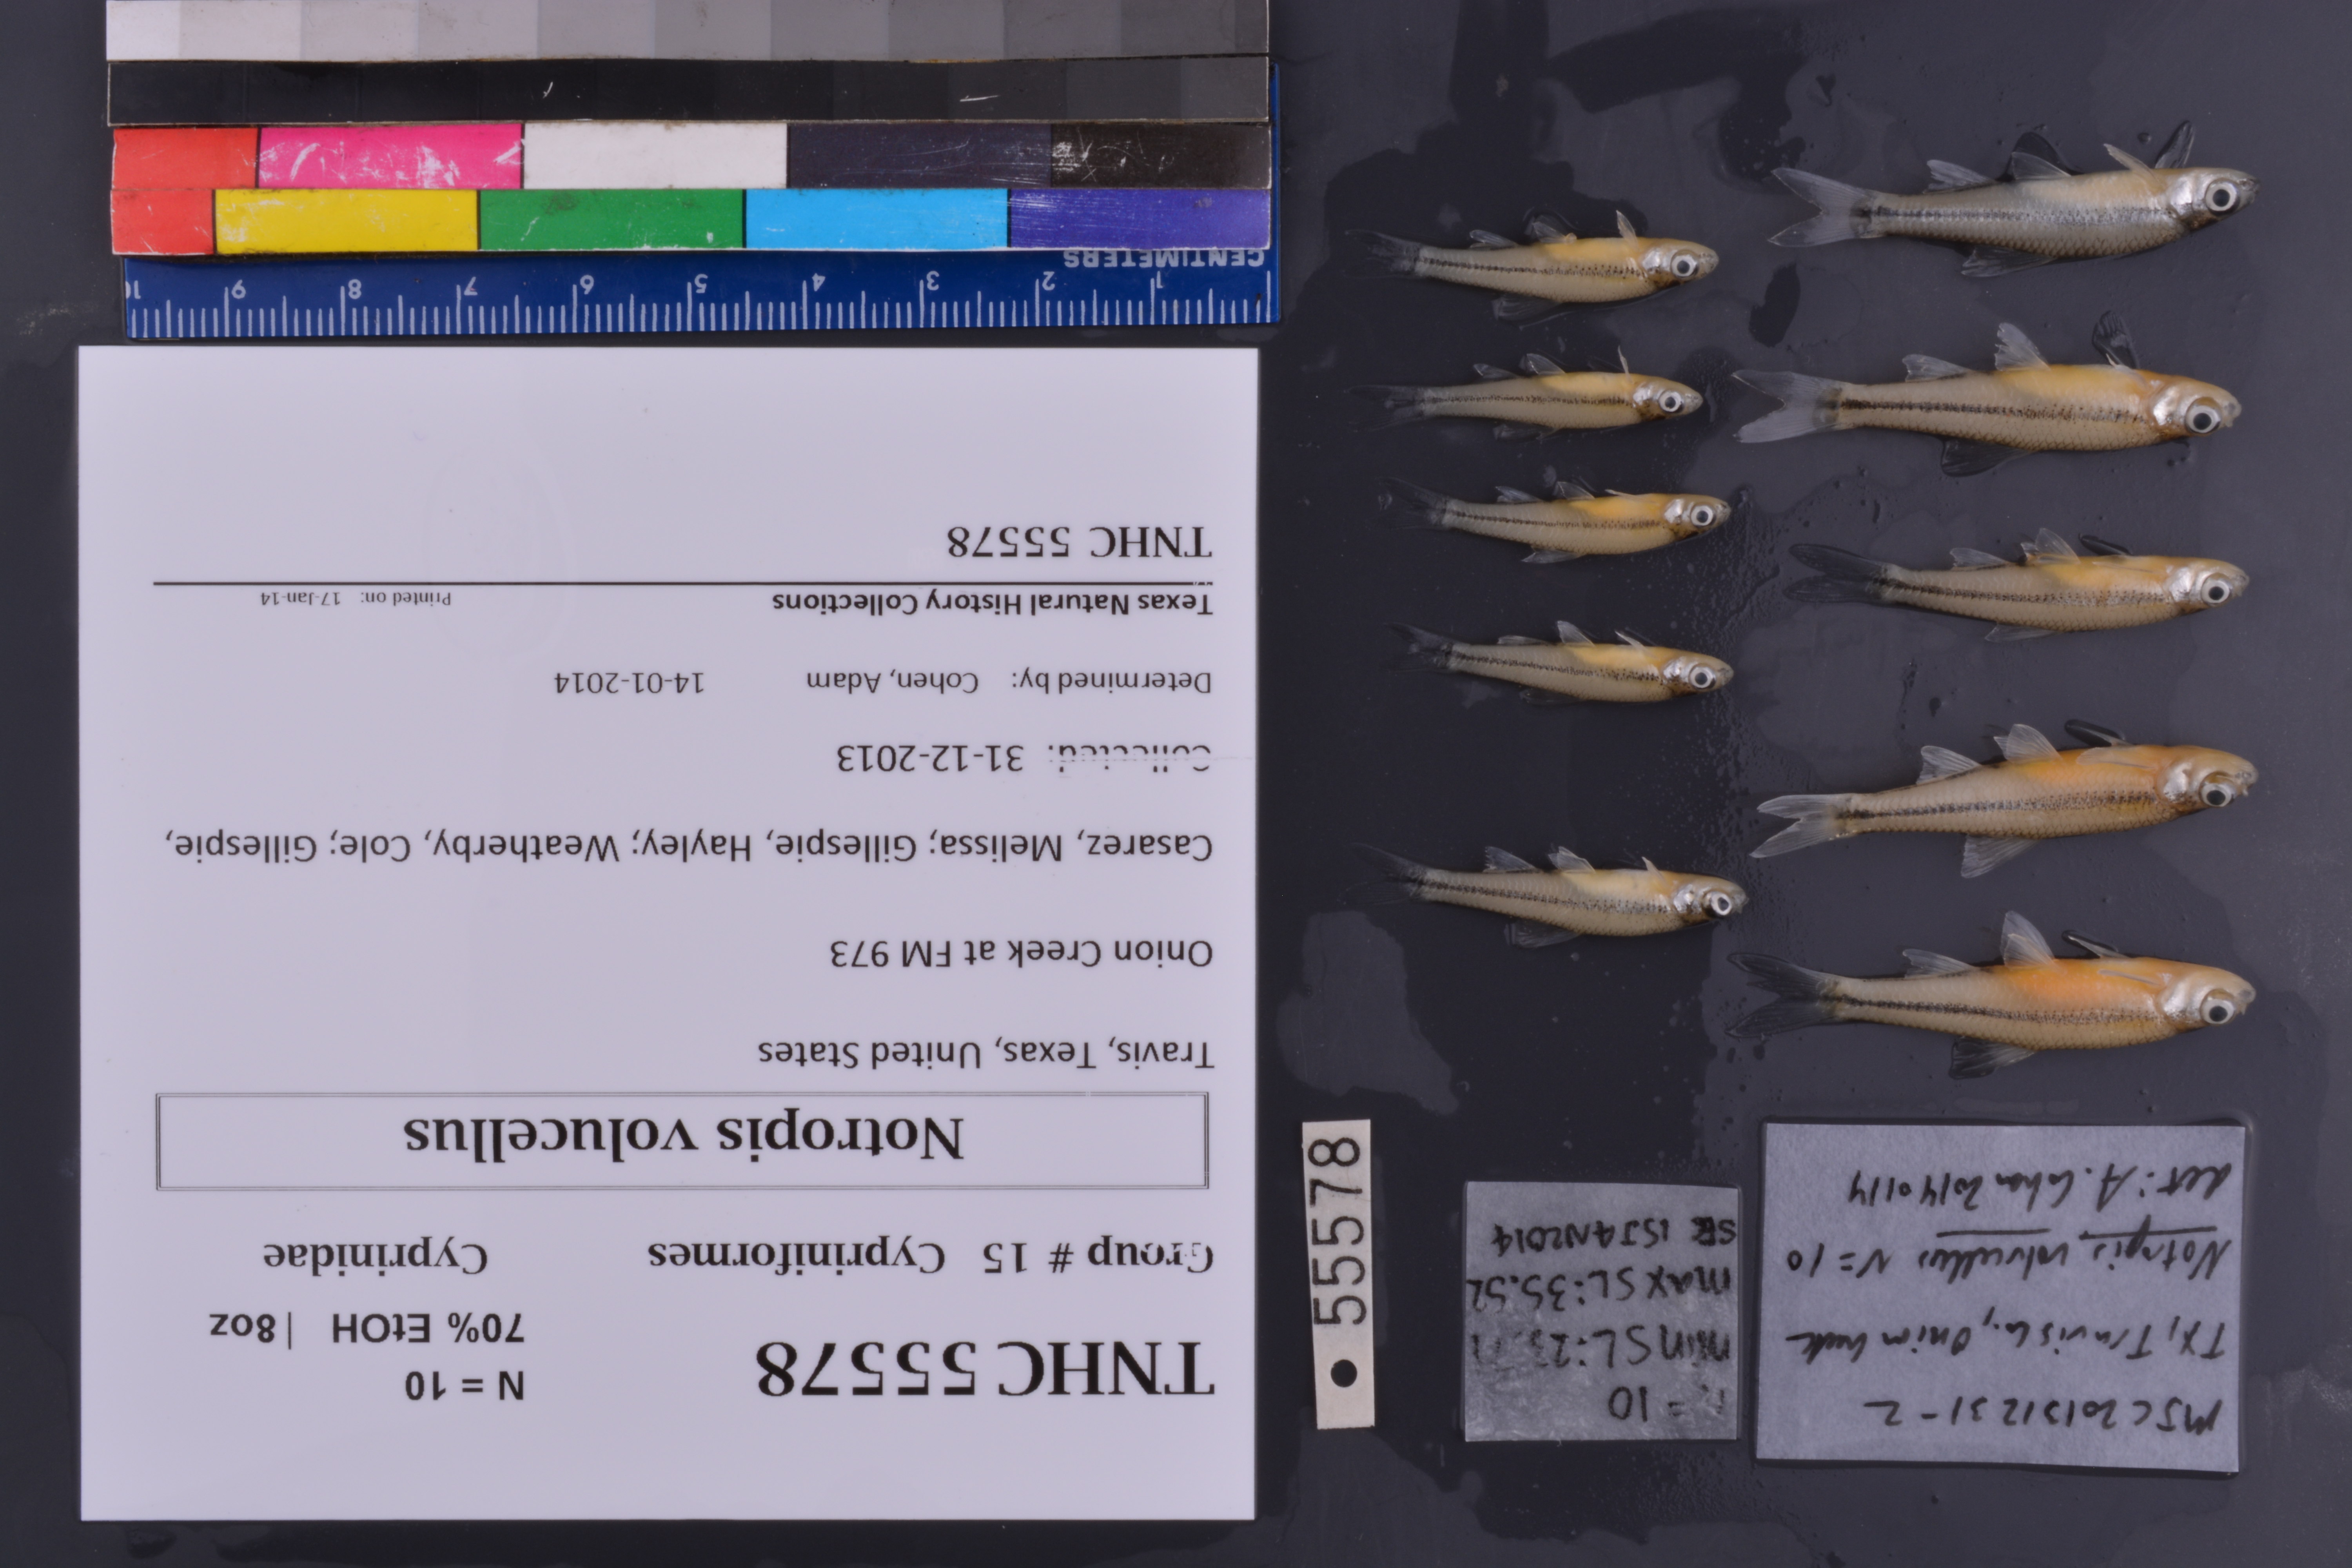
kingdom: Animalia
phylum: Chordata
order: Cypriniformes
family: Cyprinidae
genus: Notropis
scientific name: Notropis volucellus
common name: Mimic shiner
